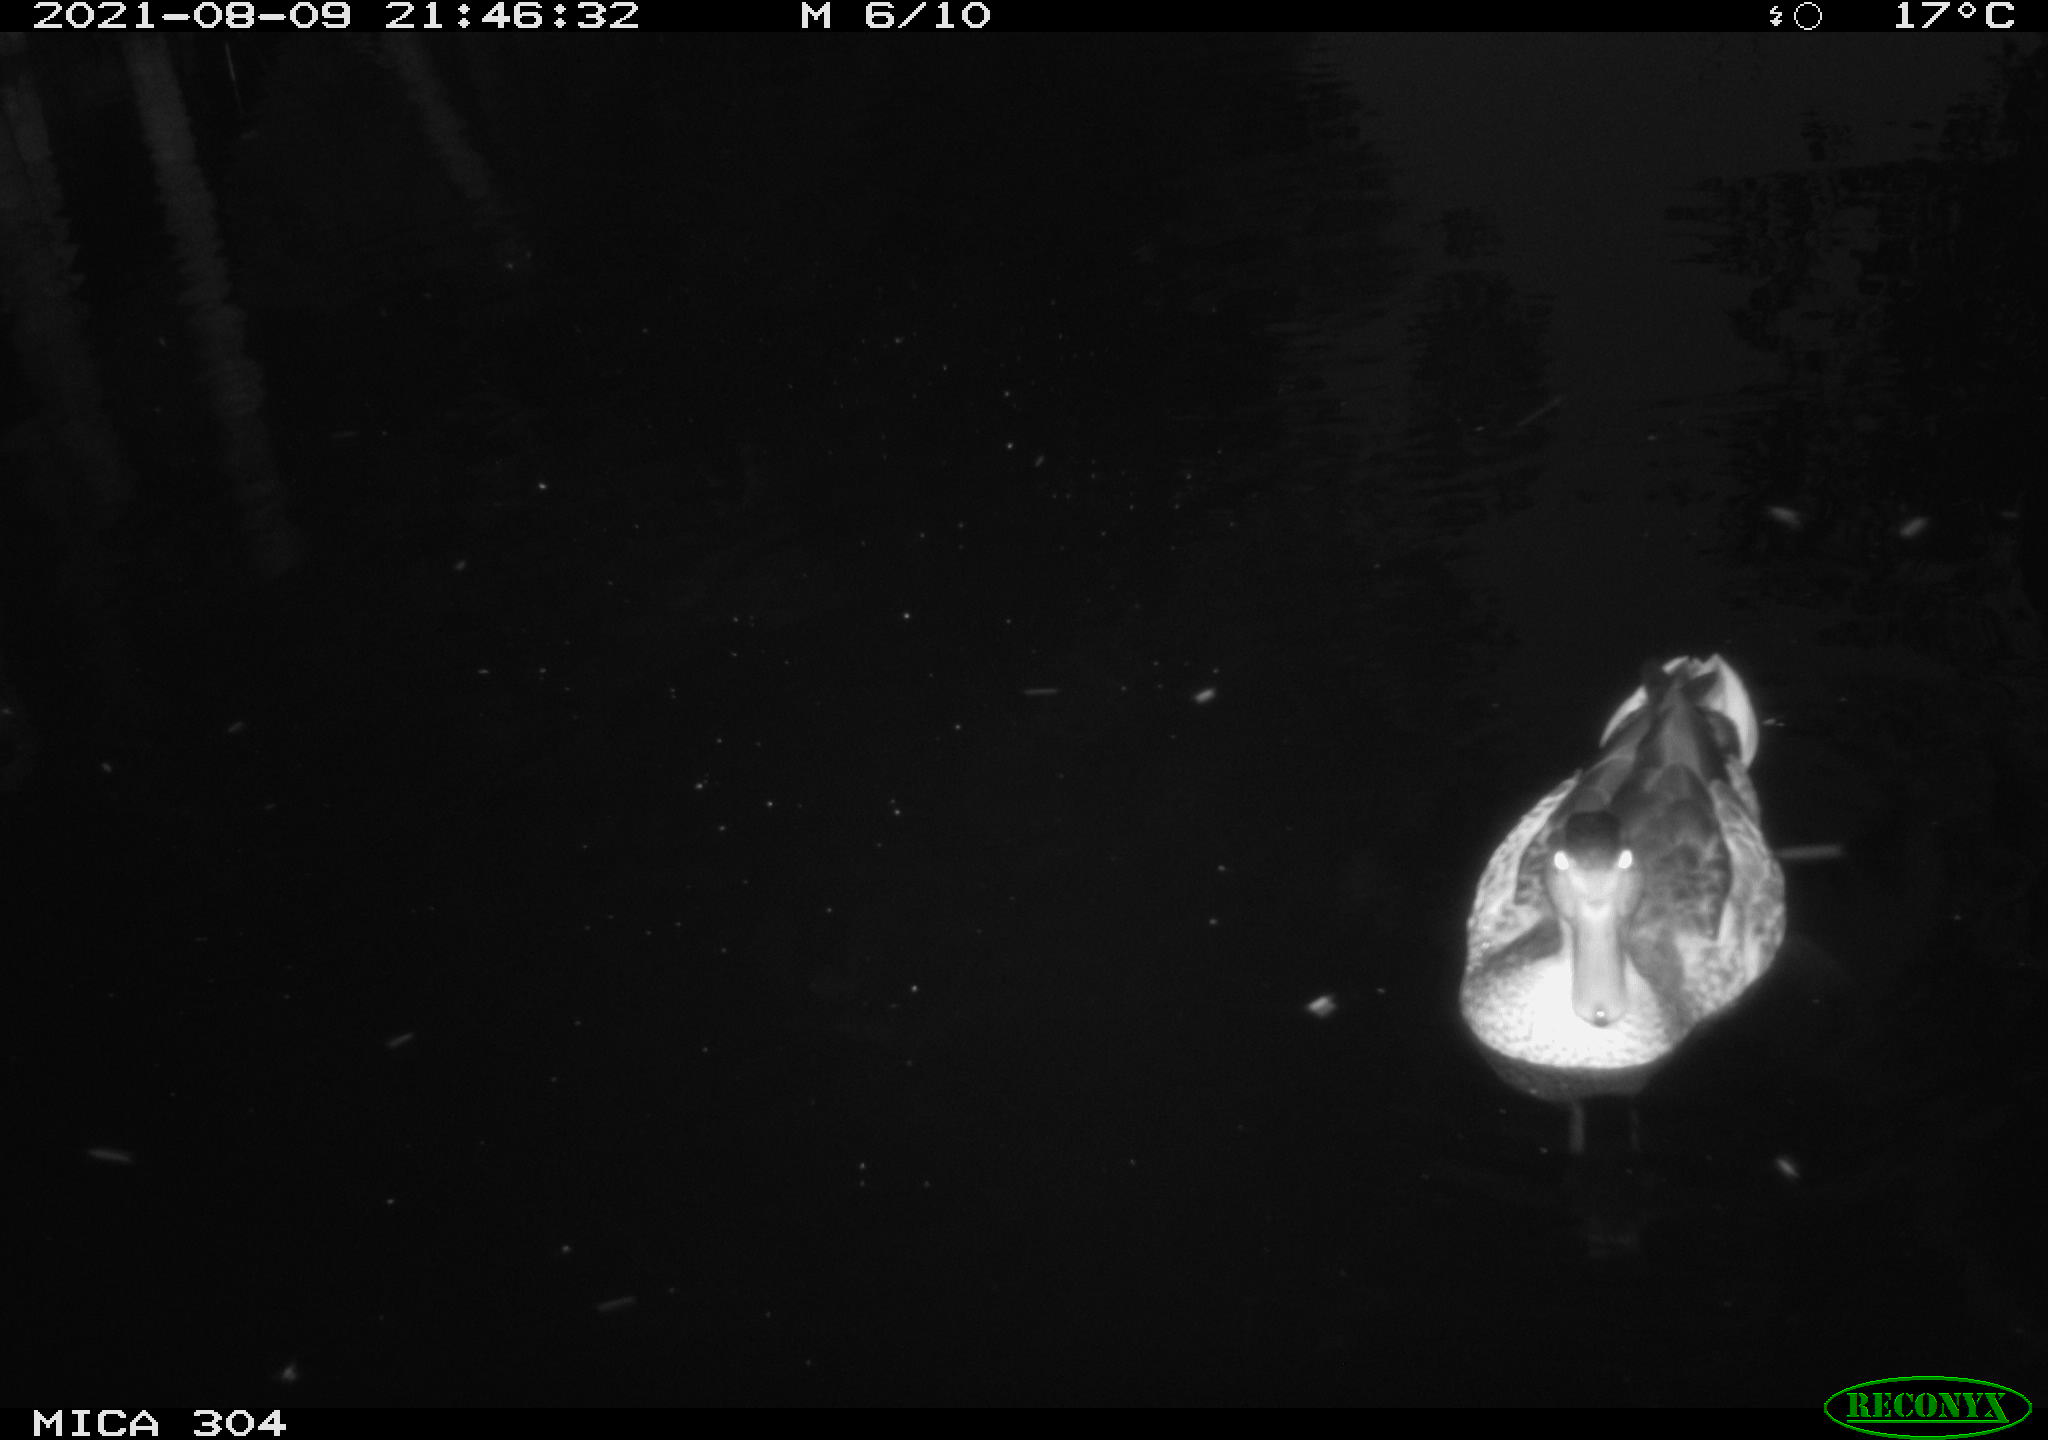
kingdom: Animalia
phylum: Chordata
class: Aves
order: Anseriformes
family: Anatidae
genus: Anas
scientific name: Anas platyrhynchos
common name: Mallard
